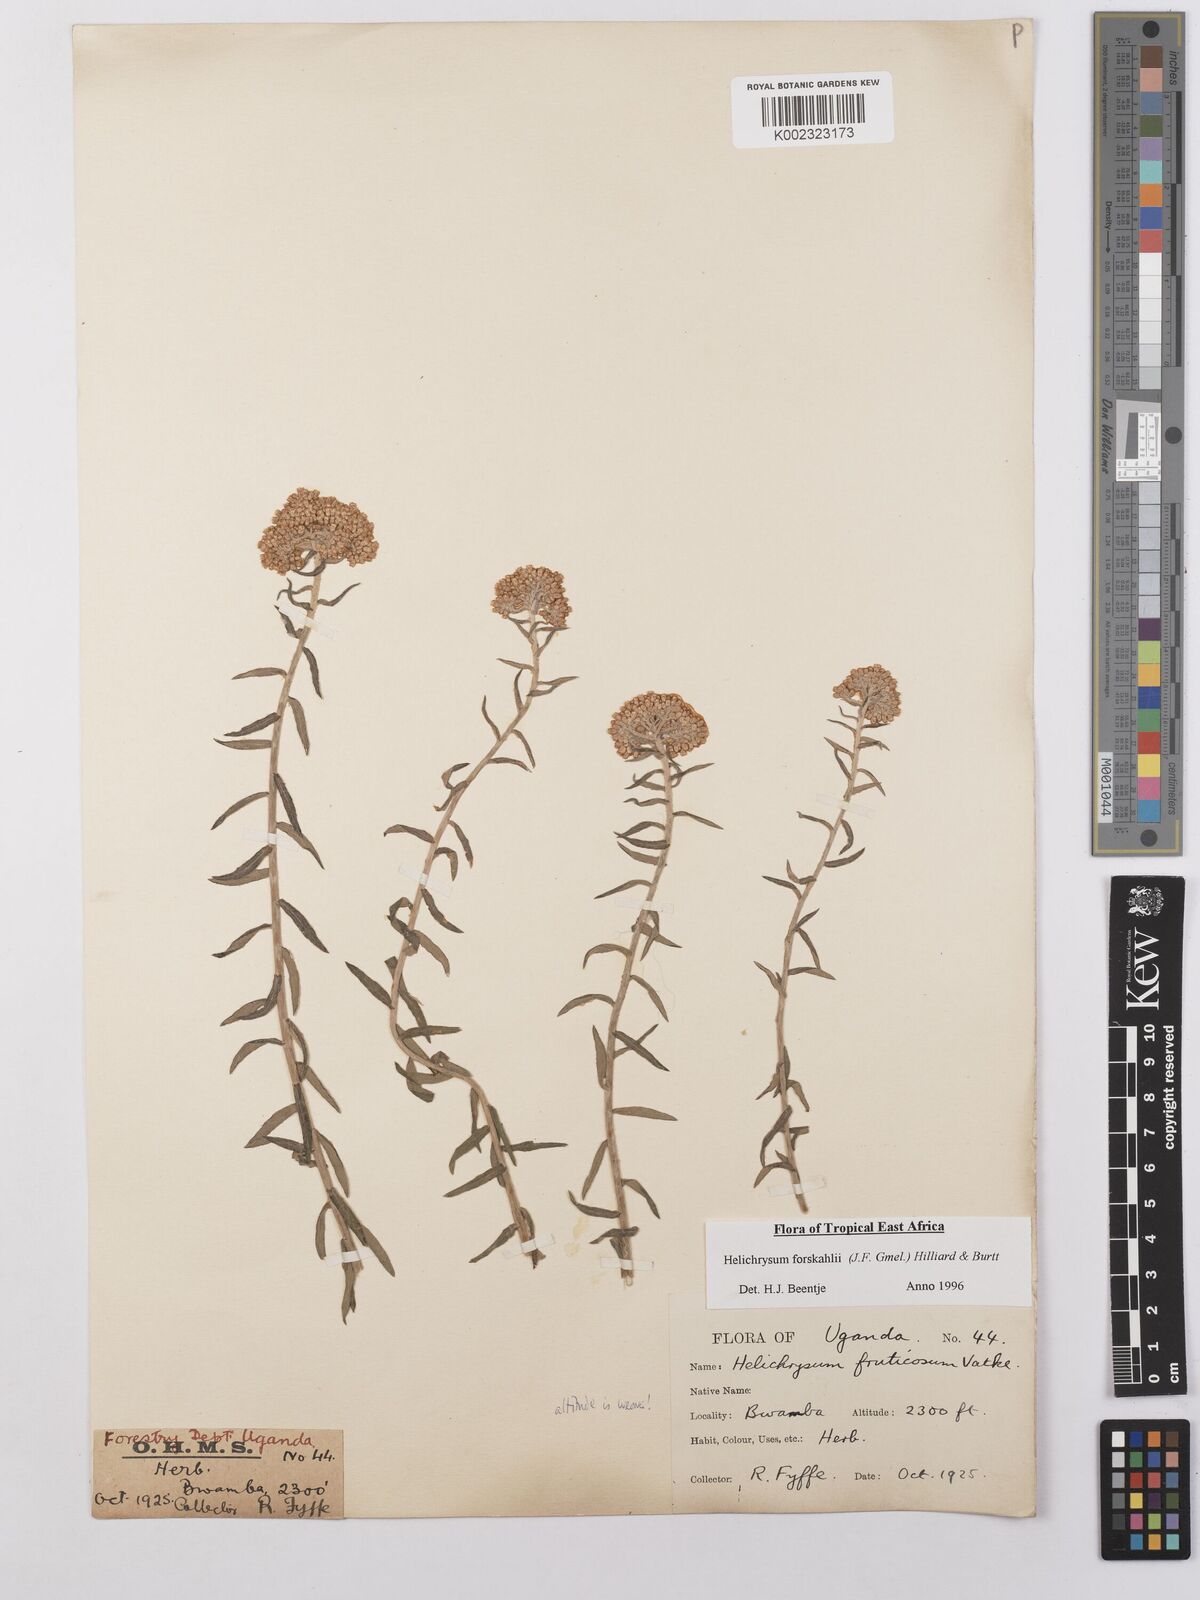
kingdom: Plantae
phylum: Tracheophyta
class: Magnoliopsida
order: Asterales
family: Asteraceae
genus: Helichrysum
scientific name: Helichrysum forskahlii
